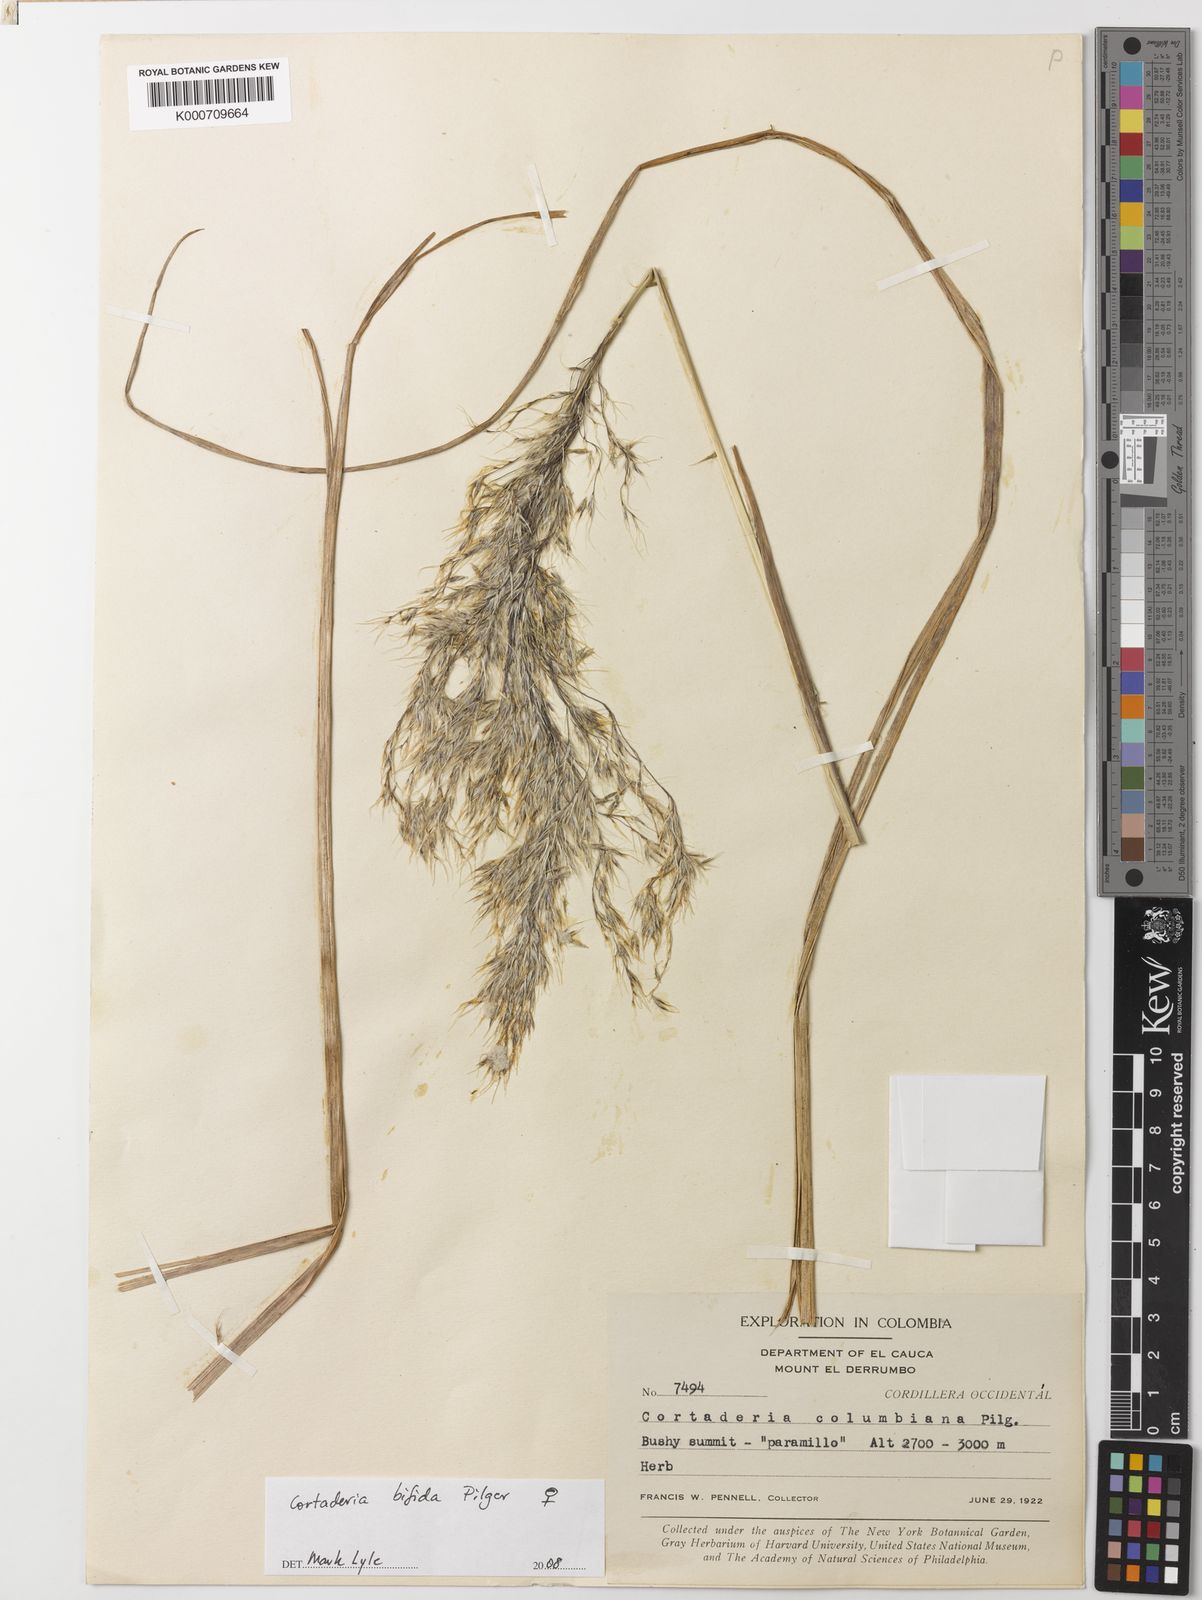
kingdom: Plantae
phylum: Tracheophyta
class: Liliopsida
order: Poales
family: Poaceae
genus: Cortaderia
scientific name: Cortaderia bifida
